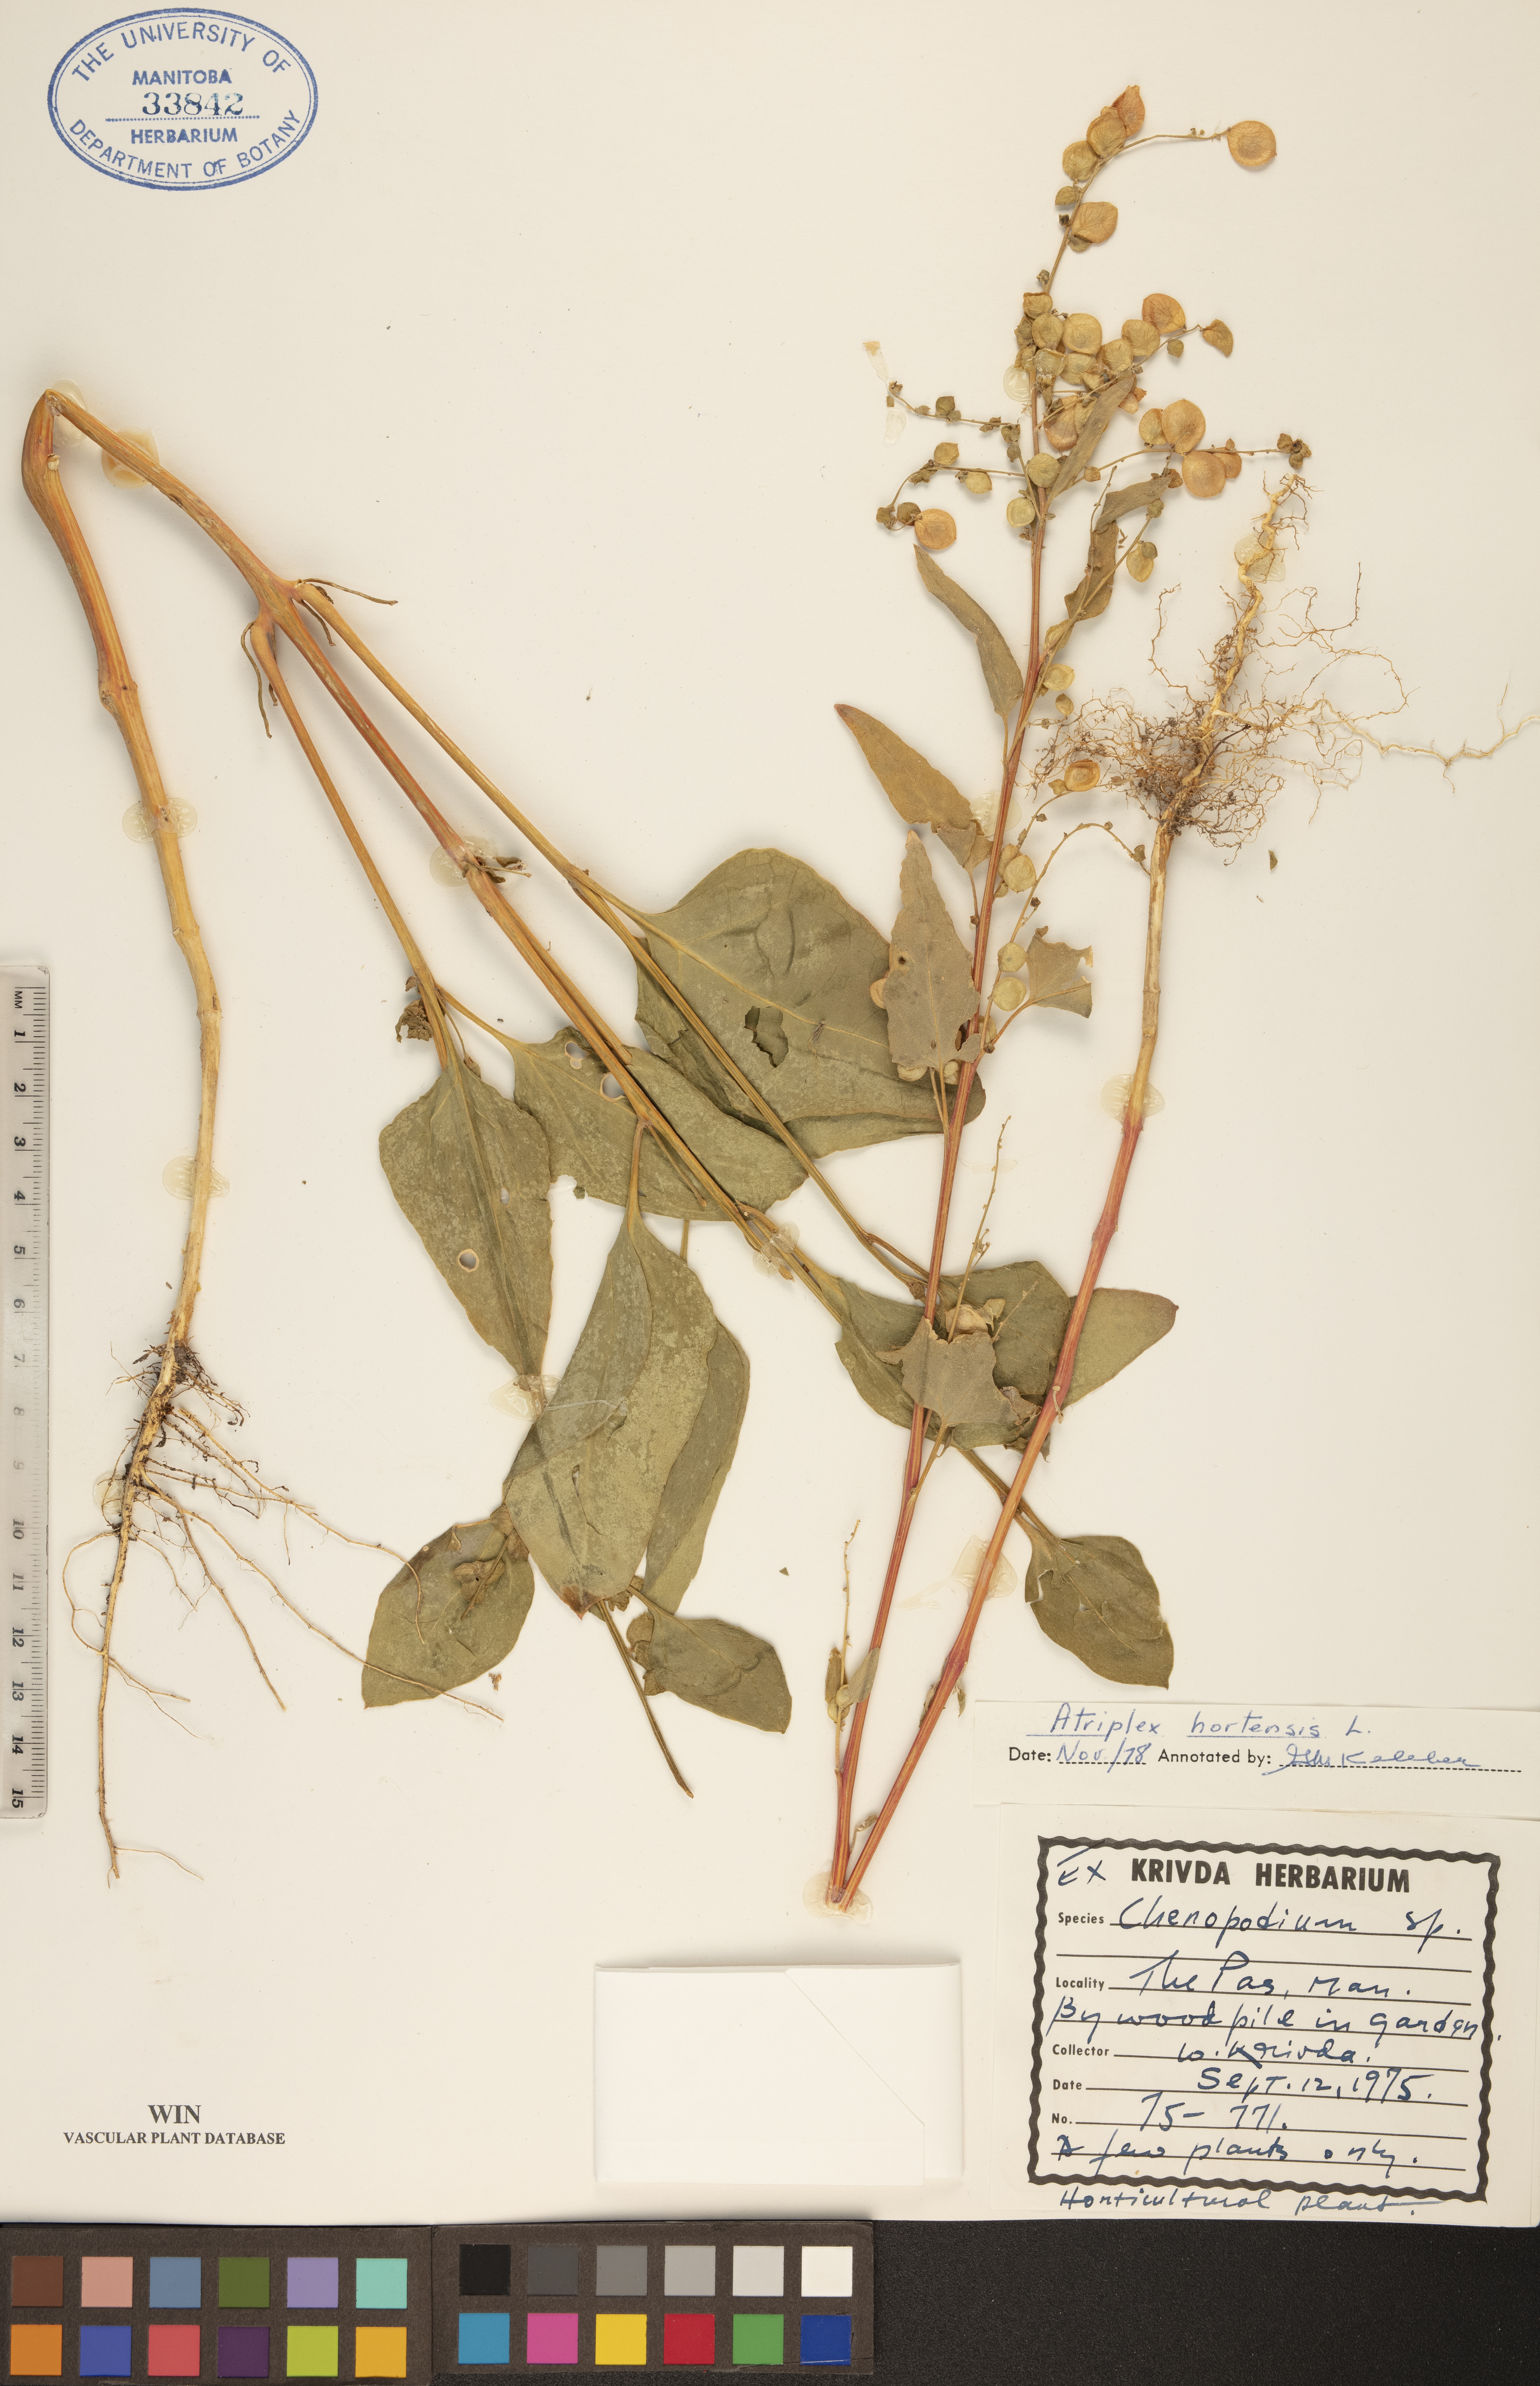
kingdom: Plantae
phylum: Tracheophyta
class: Magnoliopsida
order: Caryophyllales
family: Amaranthaceae
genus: Atriplex
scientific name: Atriplex hortensis
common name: Garden orache
